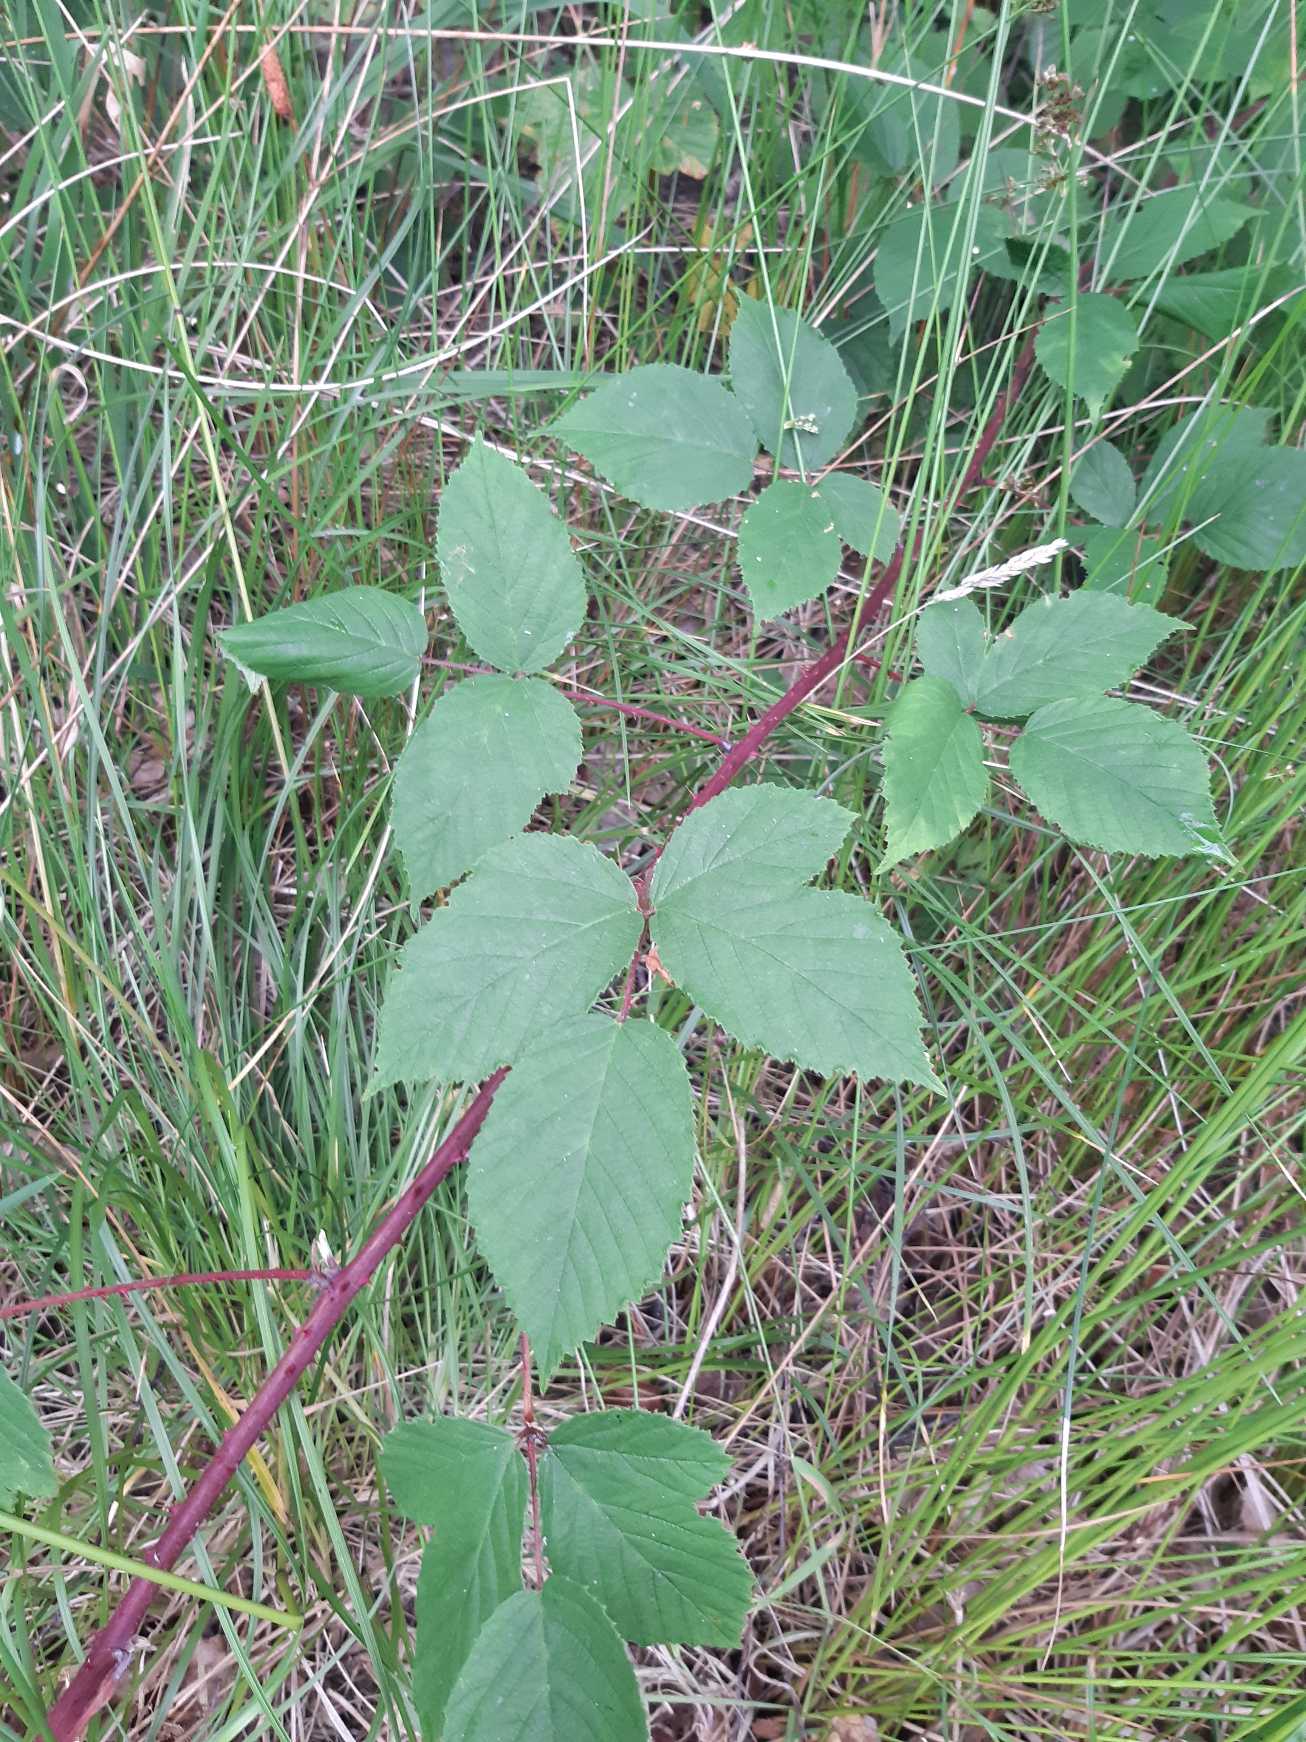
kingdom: Plantae
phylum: Tracheophyta
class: Magnoliopsida
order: Rosales
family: Rosaceae
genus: Rubus
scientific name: Rubus
